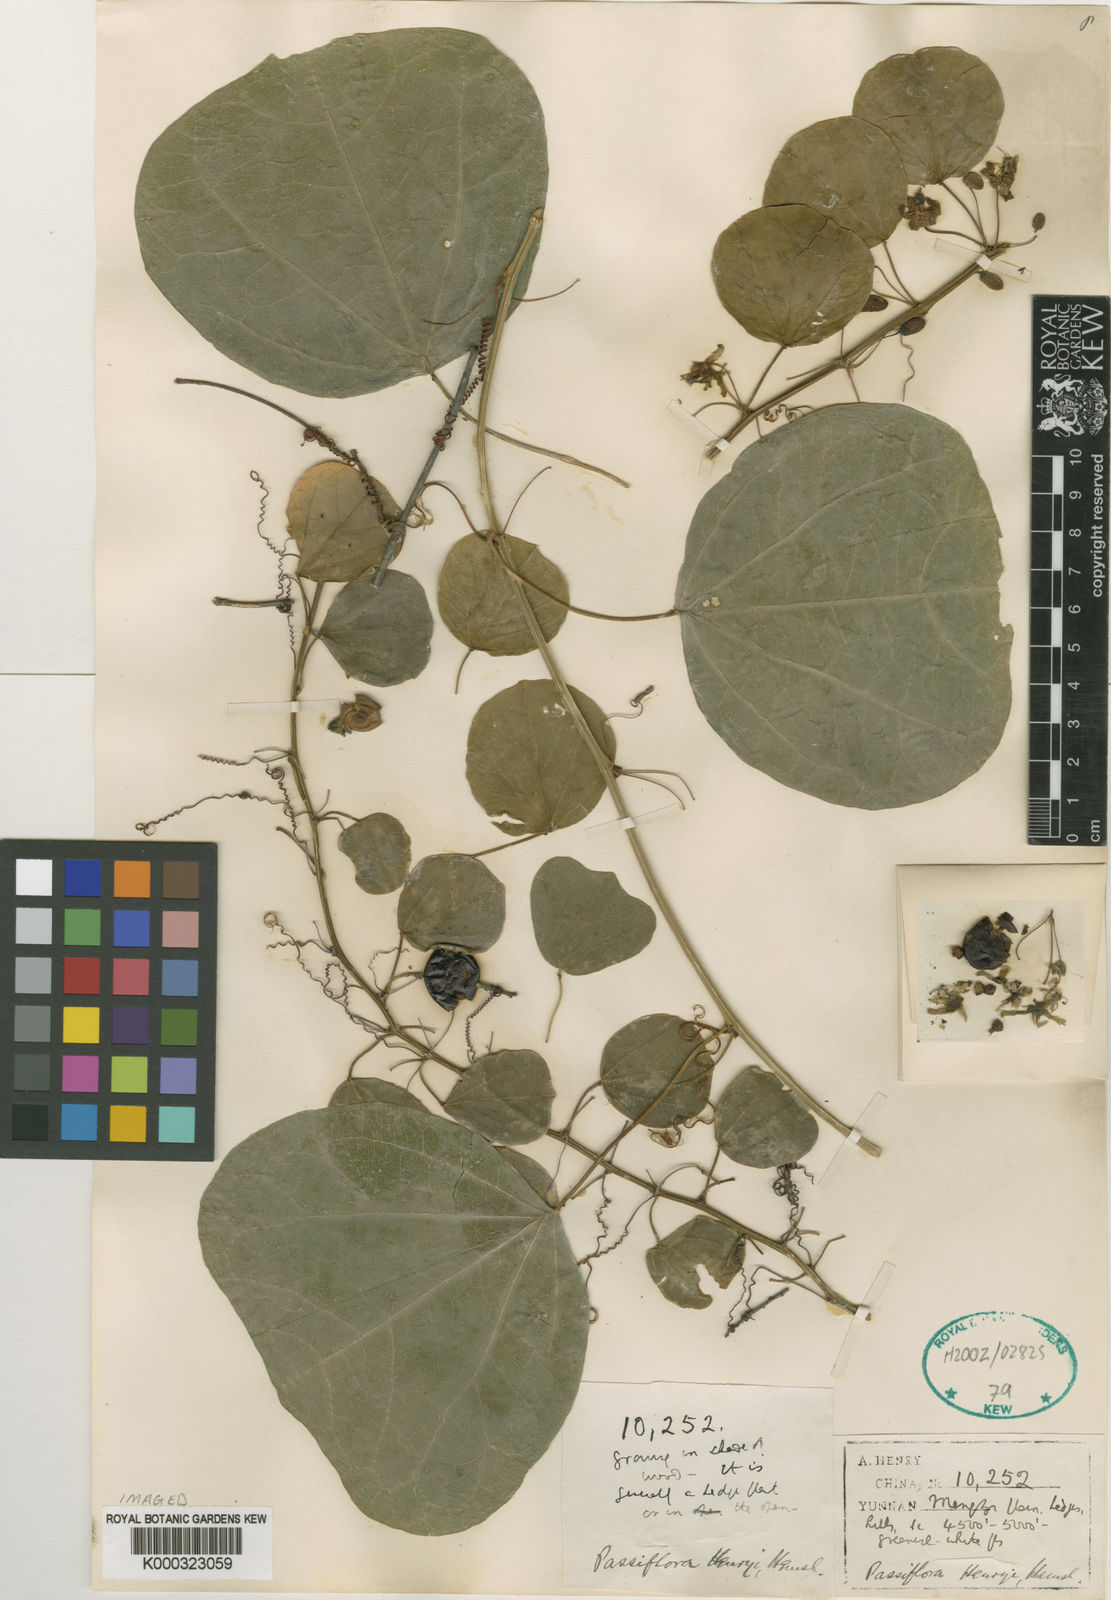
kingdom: Plantae
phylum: Tracheophyta
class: Magnoliopsida
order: Malpighiales
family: Passifloraceae
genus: Passiflora
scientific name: Passiflora henryi
